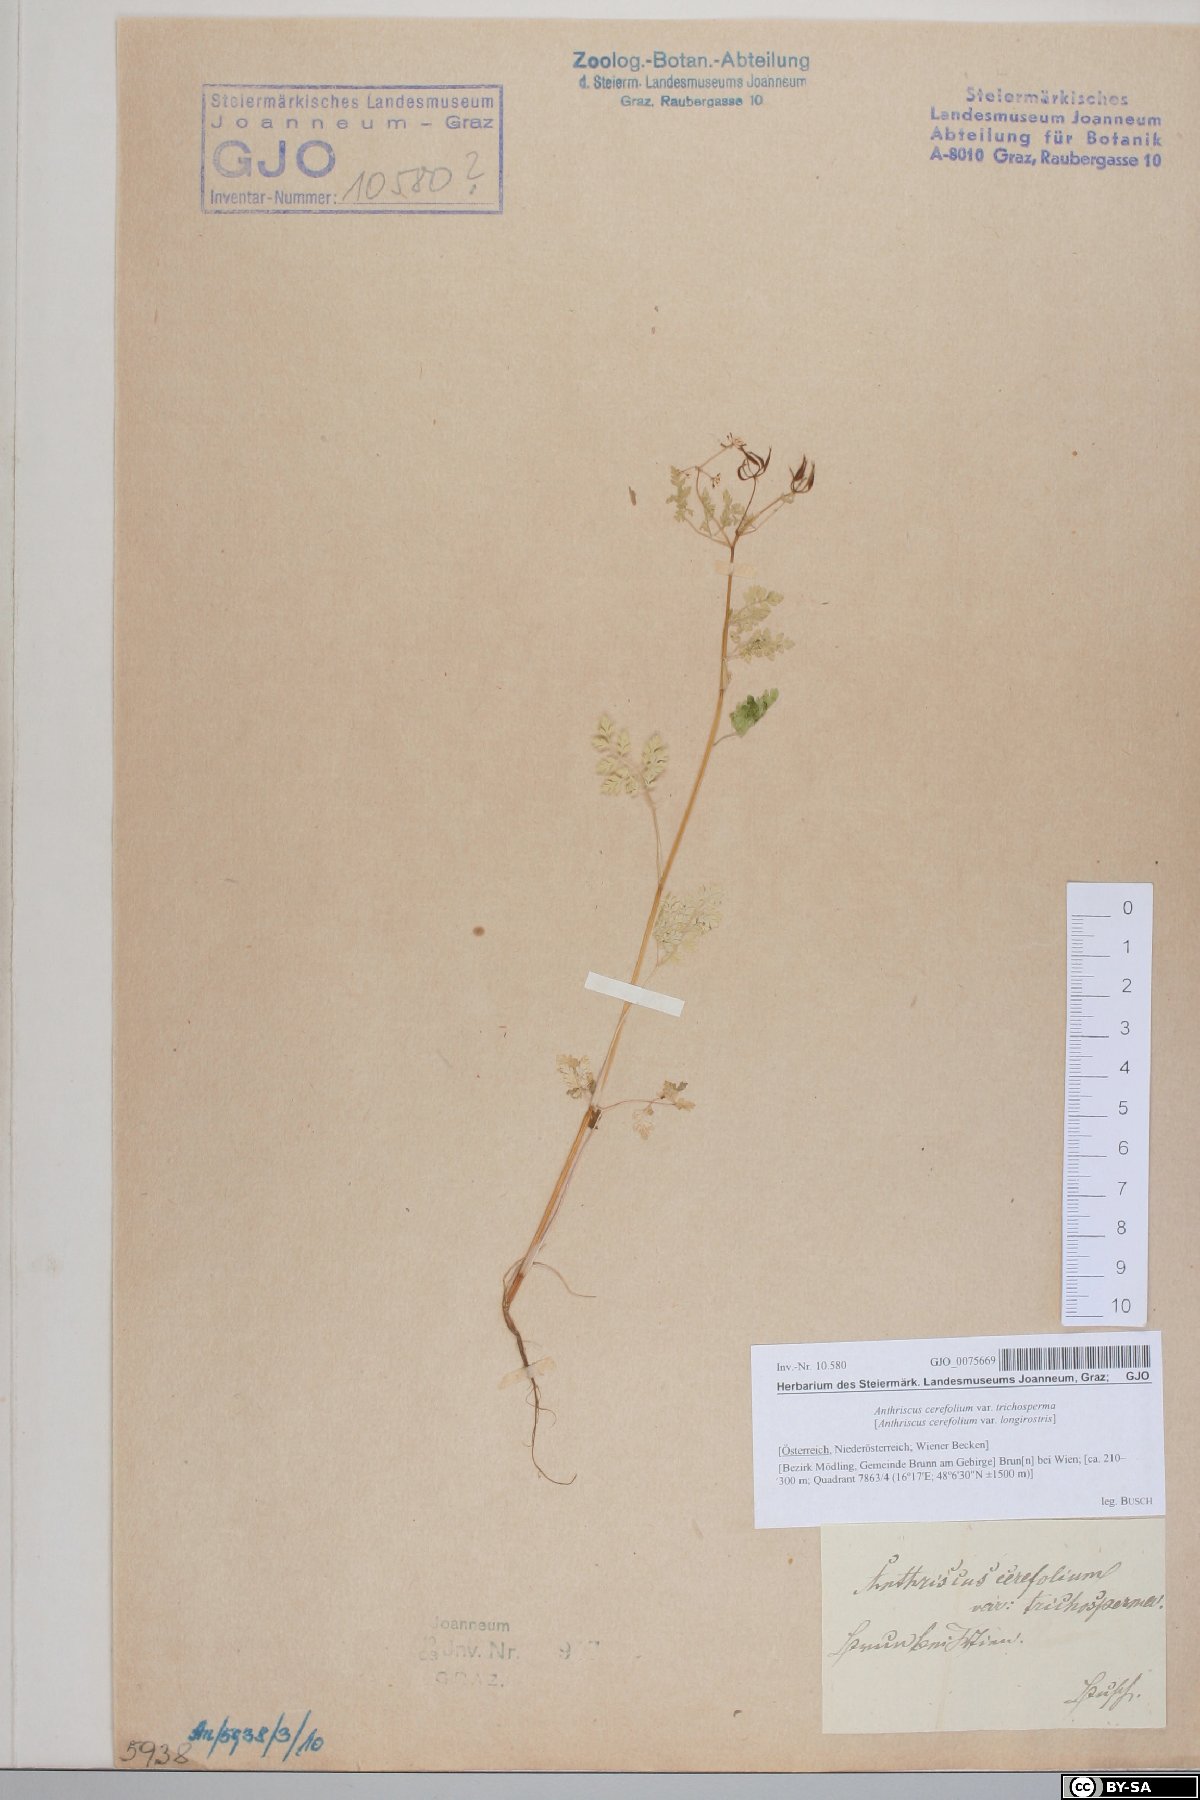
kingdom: Plantae
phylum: Tracheophyta
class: Liliopsida
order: Poales
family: Poaceae
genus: Anthoxanthum
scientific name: Anthoxanthum aristatum
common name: Annual vernal-grass
